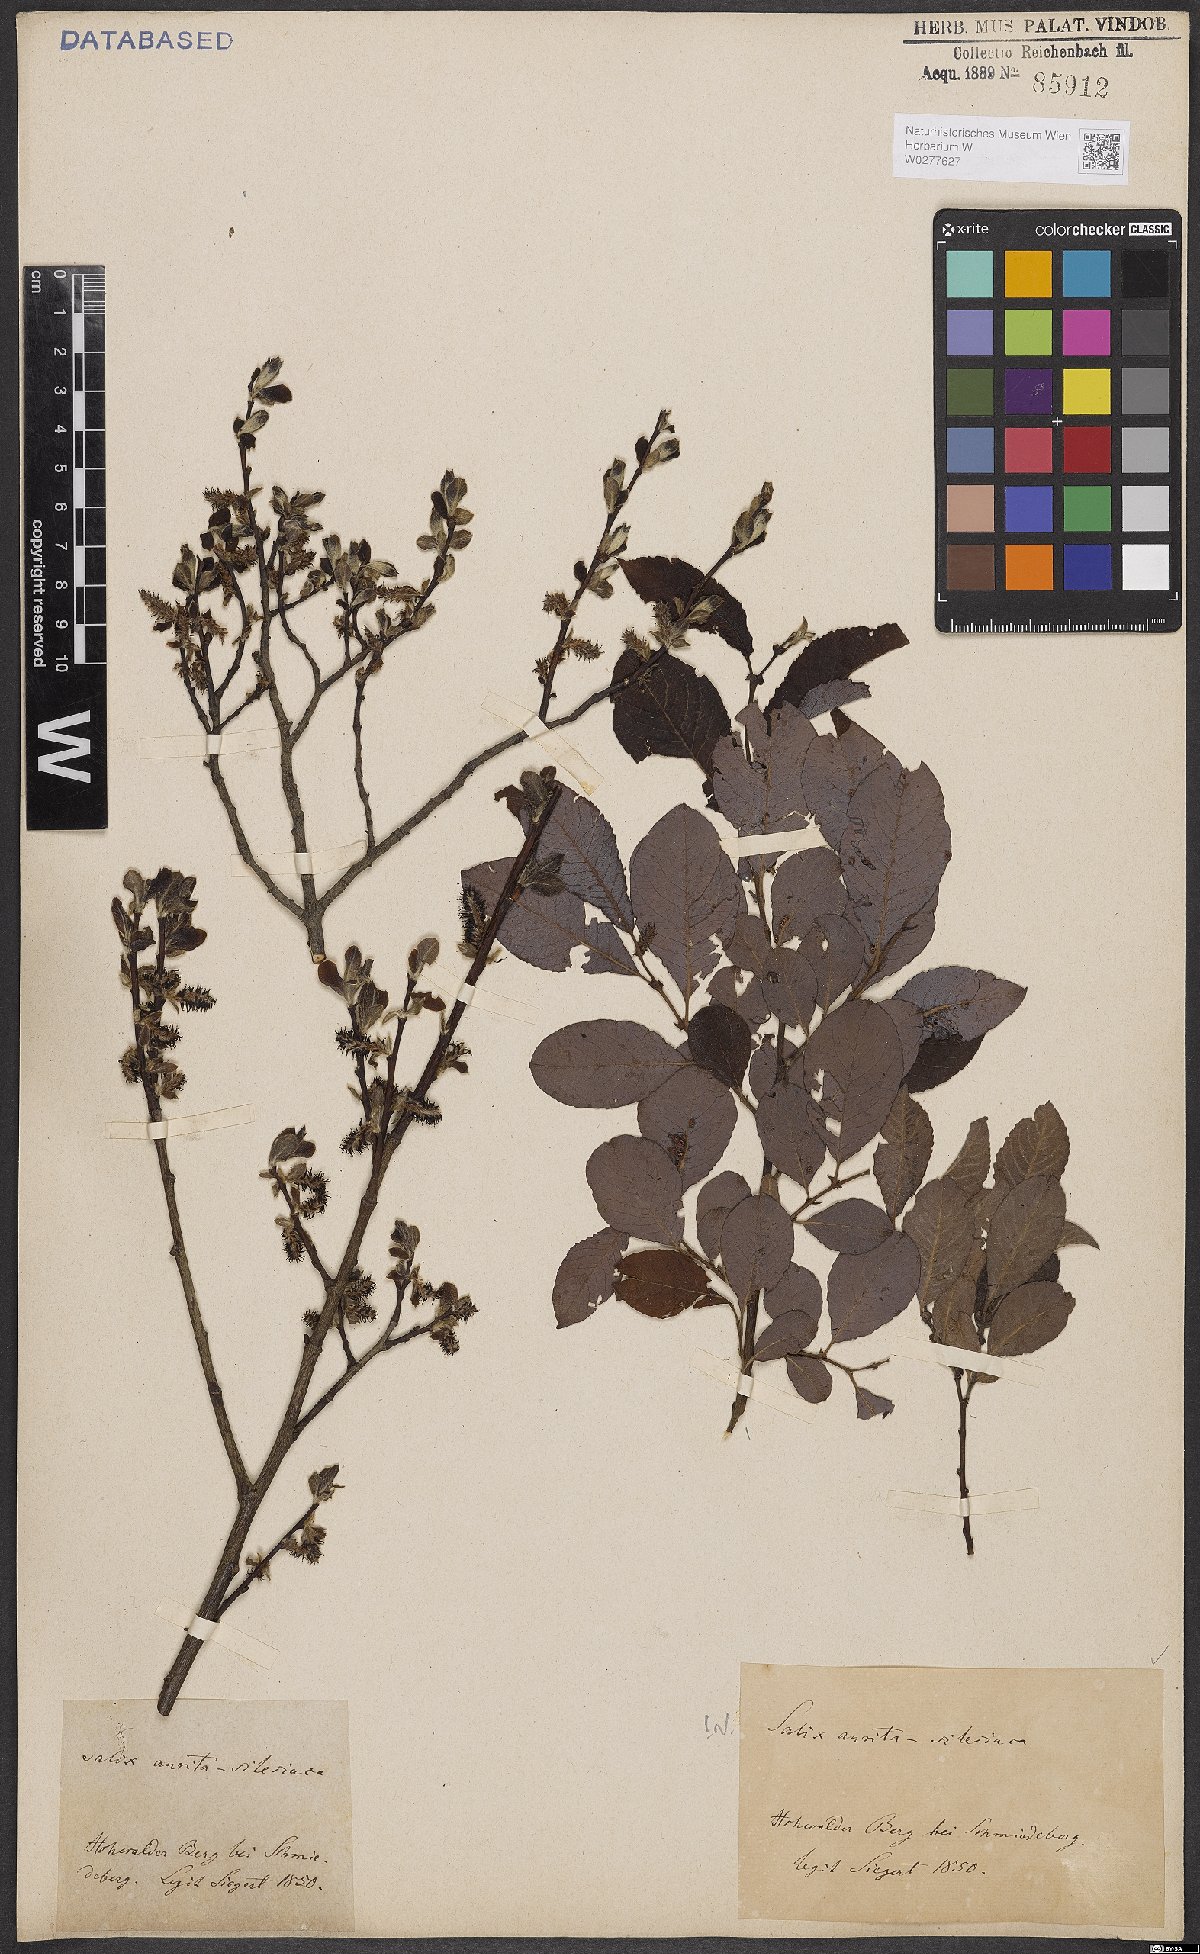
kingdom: Plantae
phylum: Tracheophyta
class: Magnoliopsida
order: Malpighiales
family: Salicaceae
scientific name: Salicaceae
